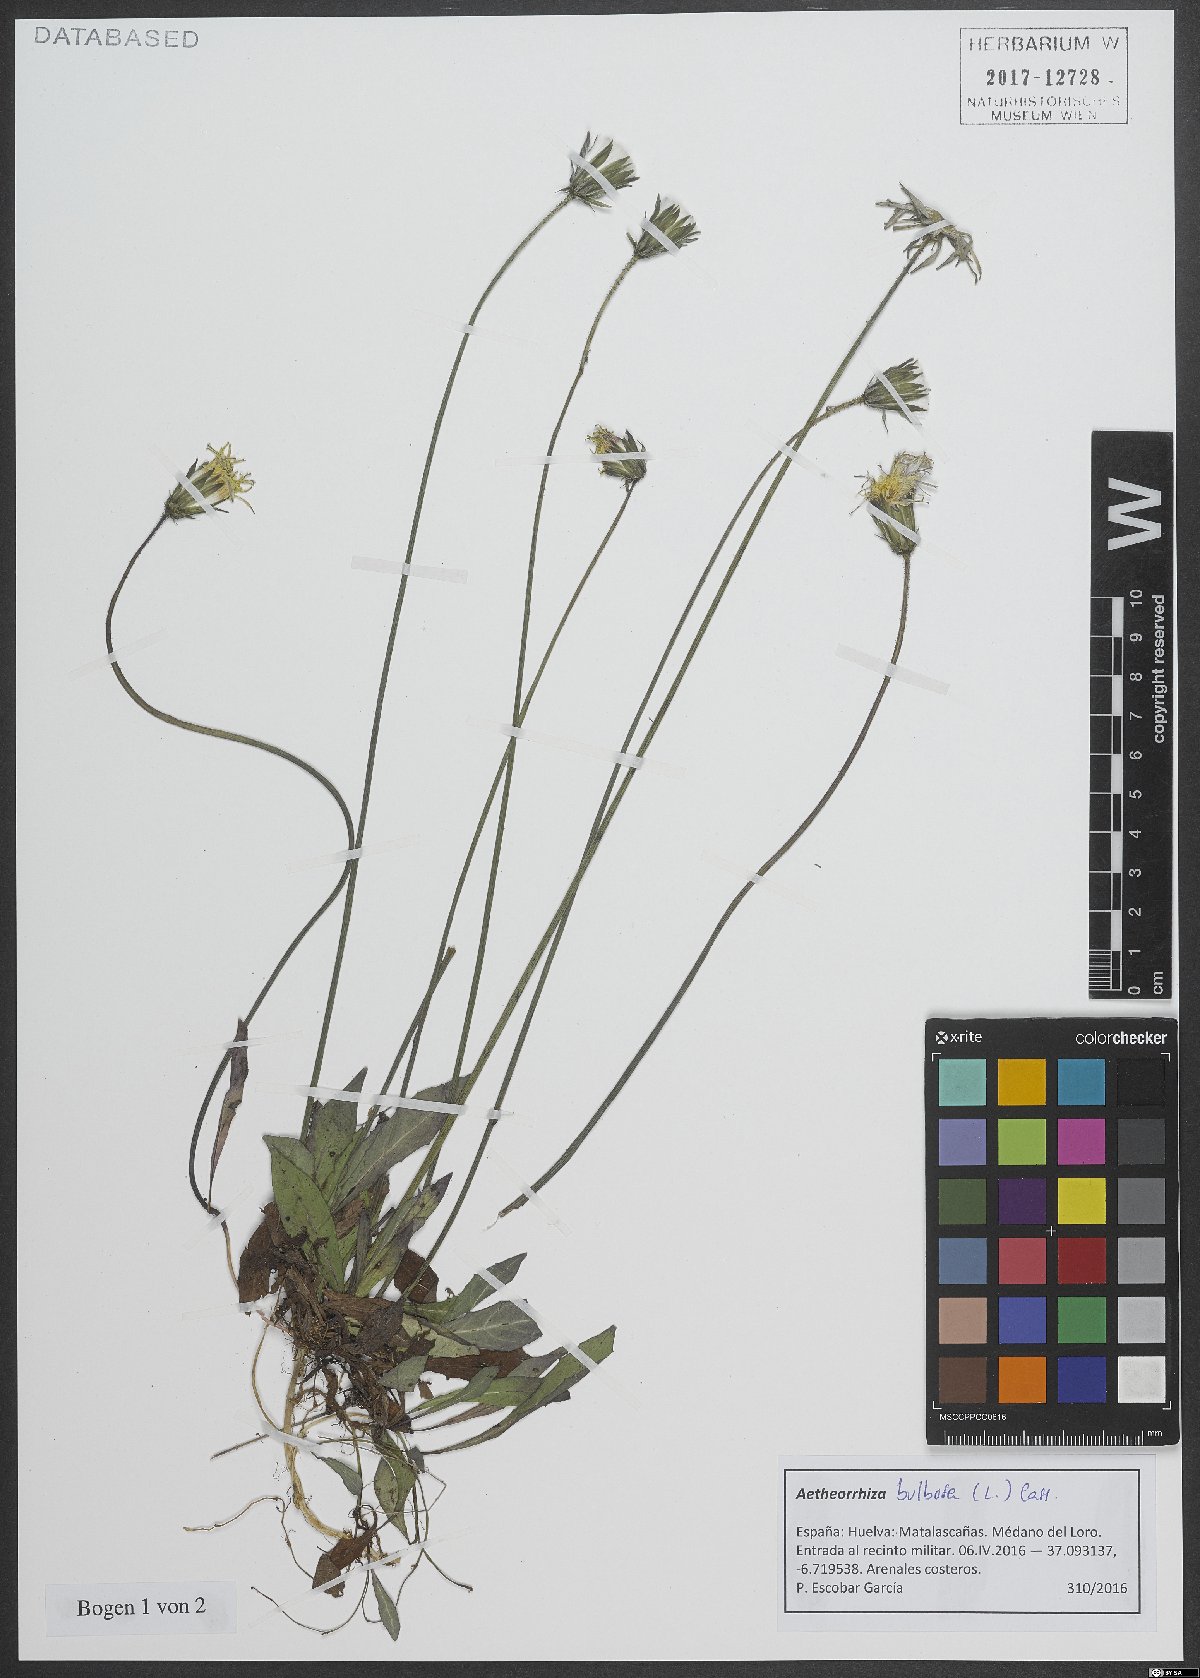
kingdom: Plantae
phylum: Tracheophyta
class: Magnoliopsida
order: Asterales
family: Asteraceae
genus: Aetheorhiza
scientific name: Aetheorhiza bulbosa
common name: Tuberous hawk's-beard
